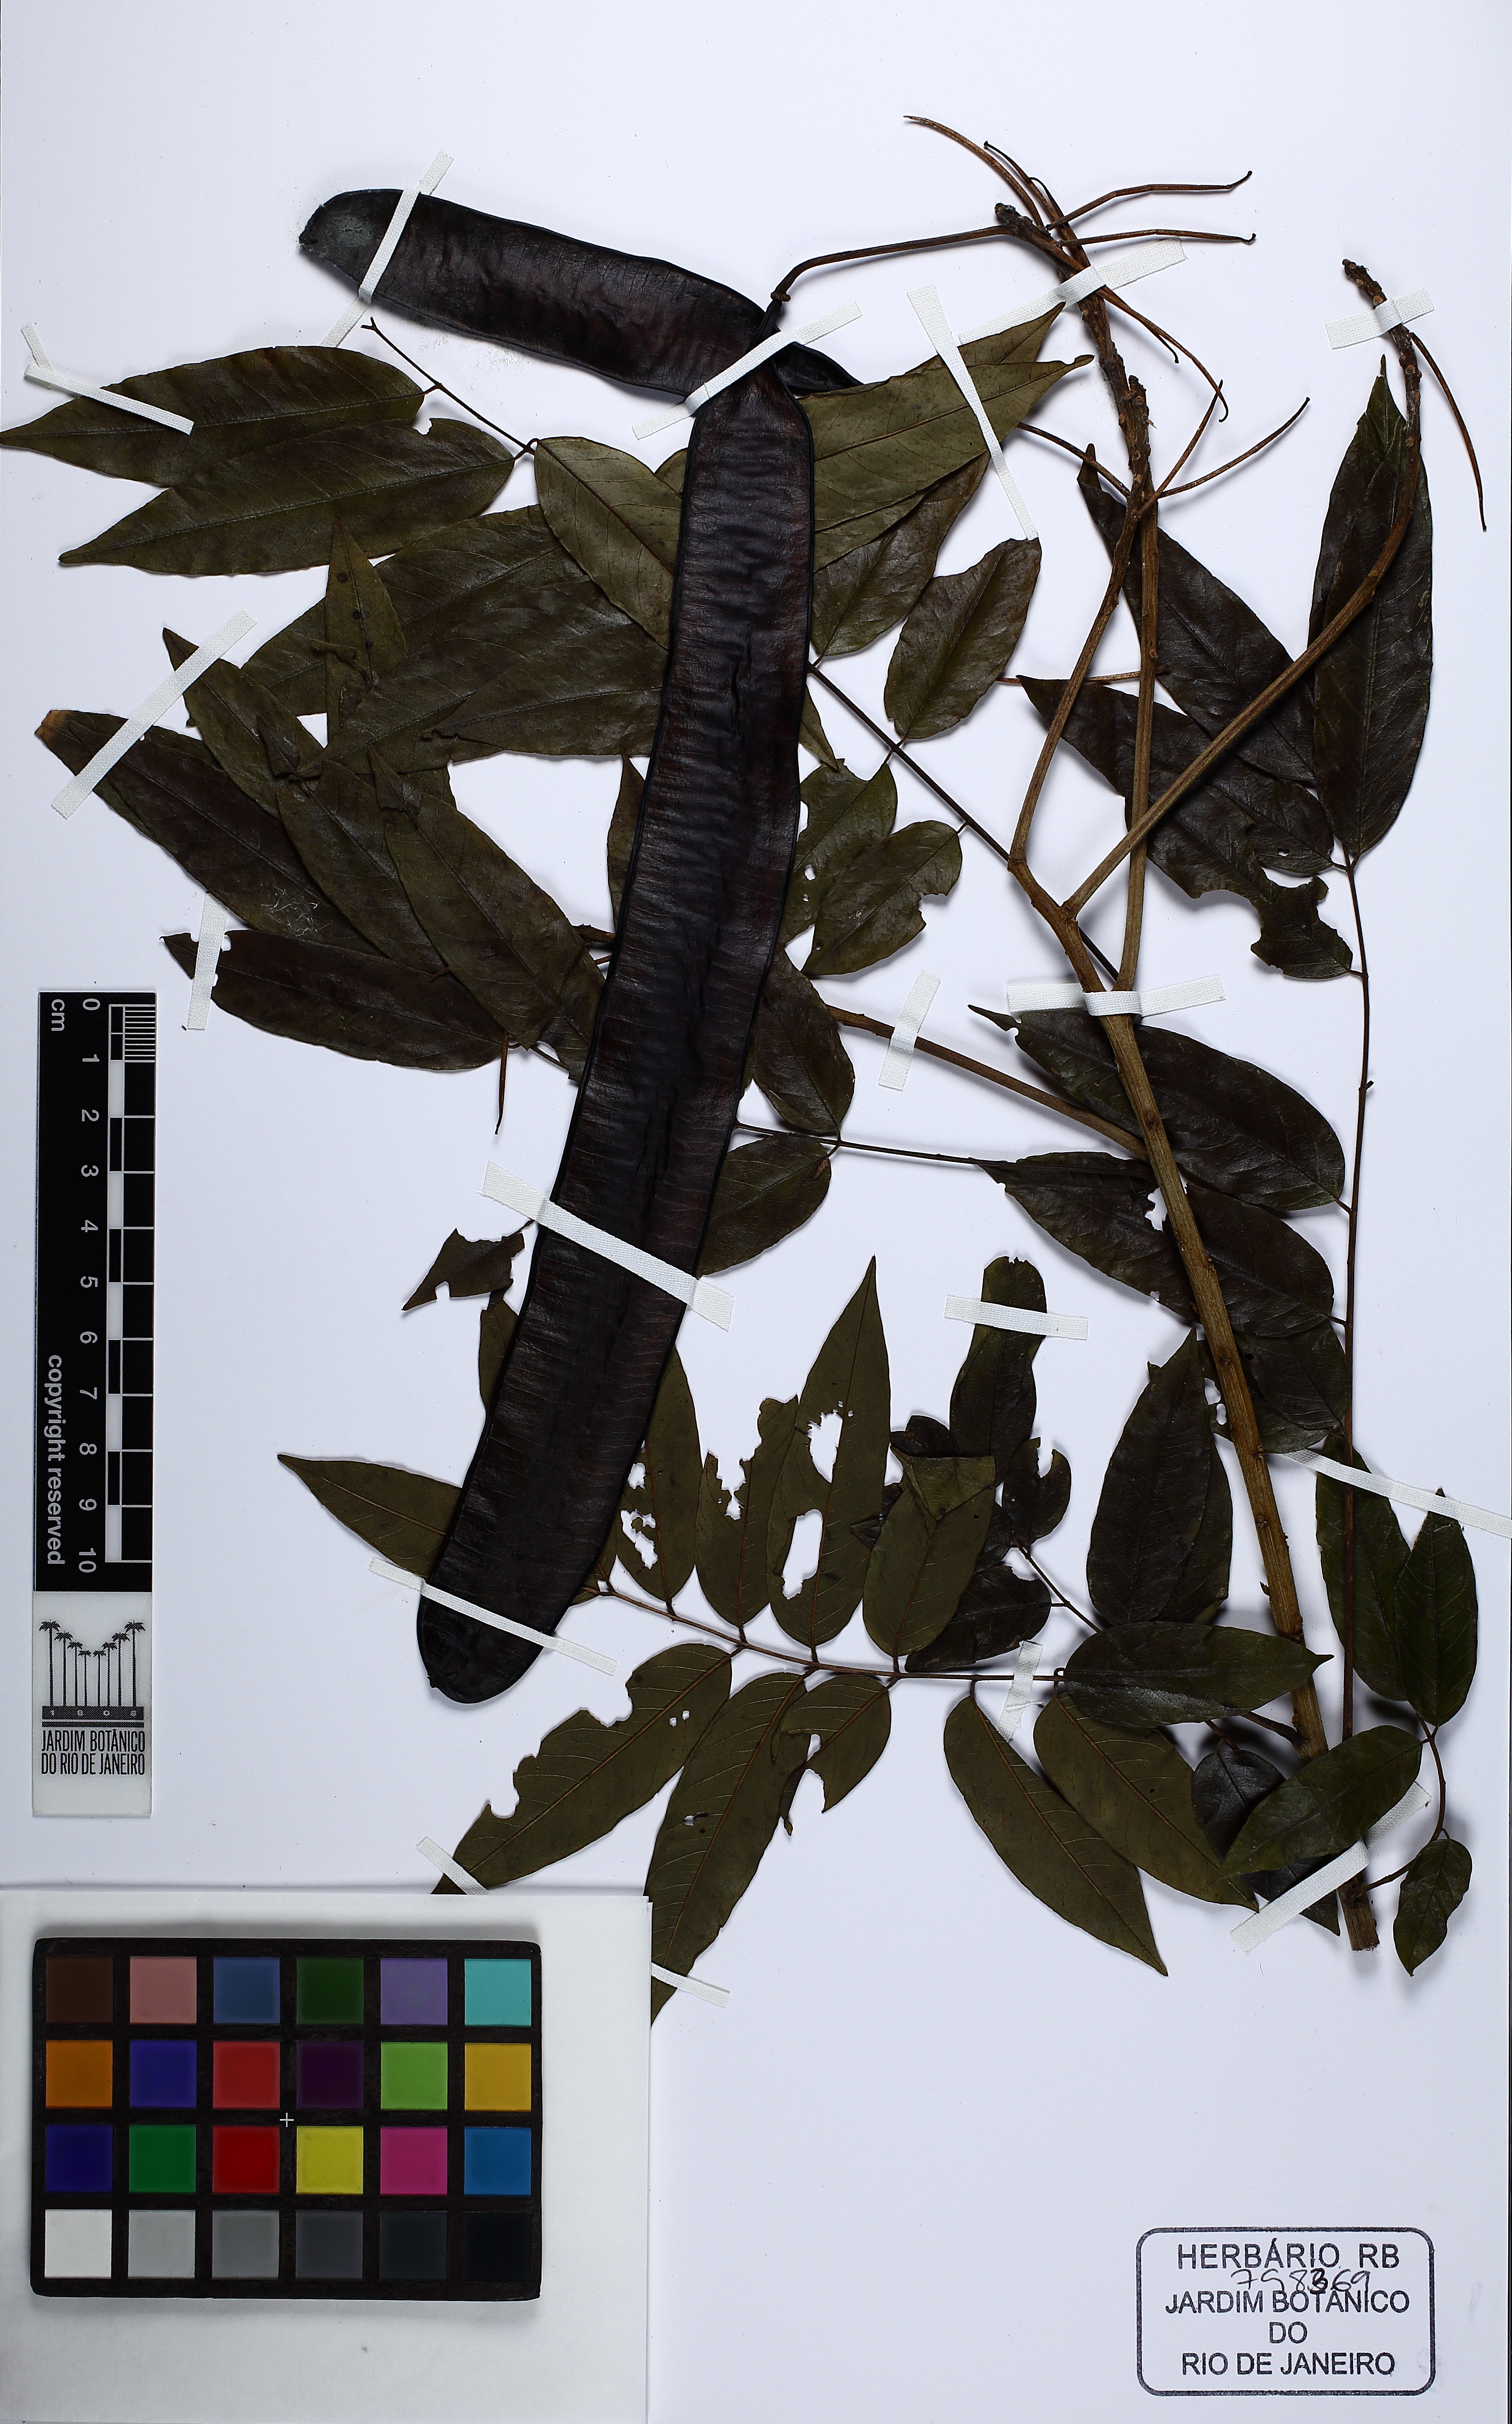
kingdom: Plantae
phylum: Tracheophyta
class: Magnoliopsida
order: Fabales
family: Fabaceae
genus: Senna
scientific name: Senna silvestris
